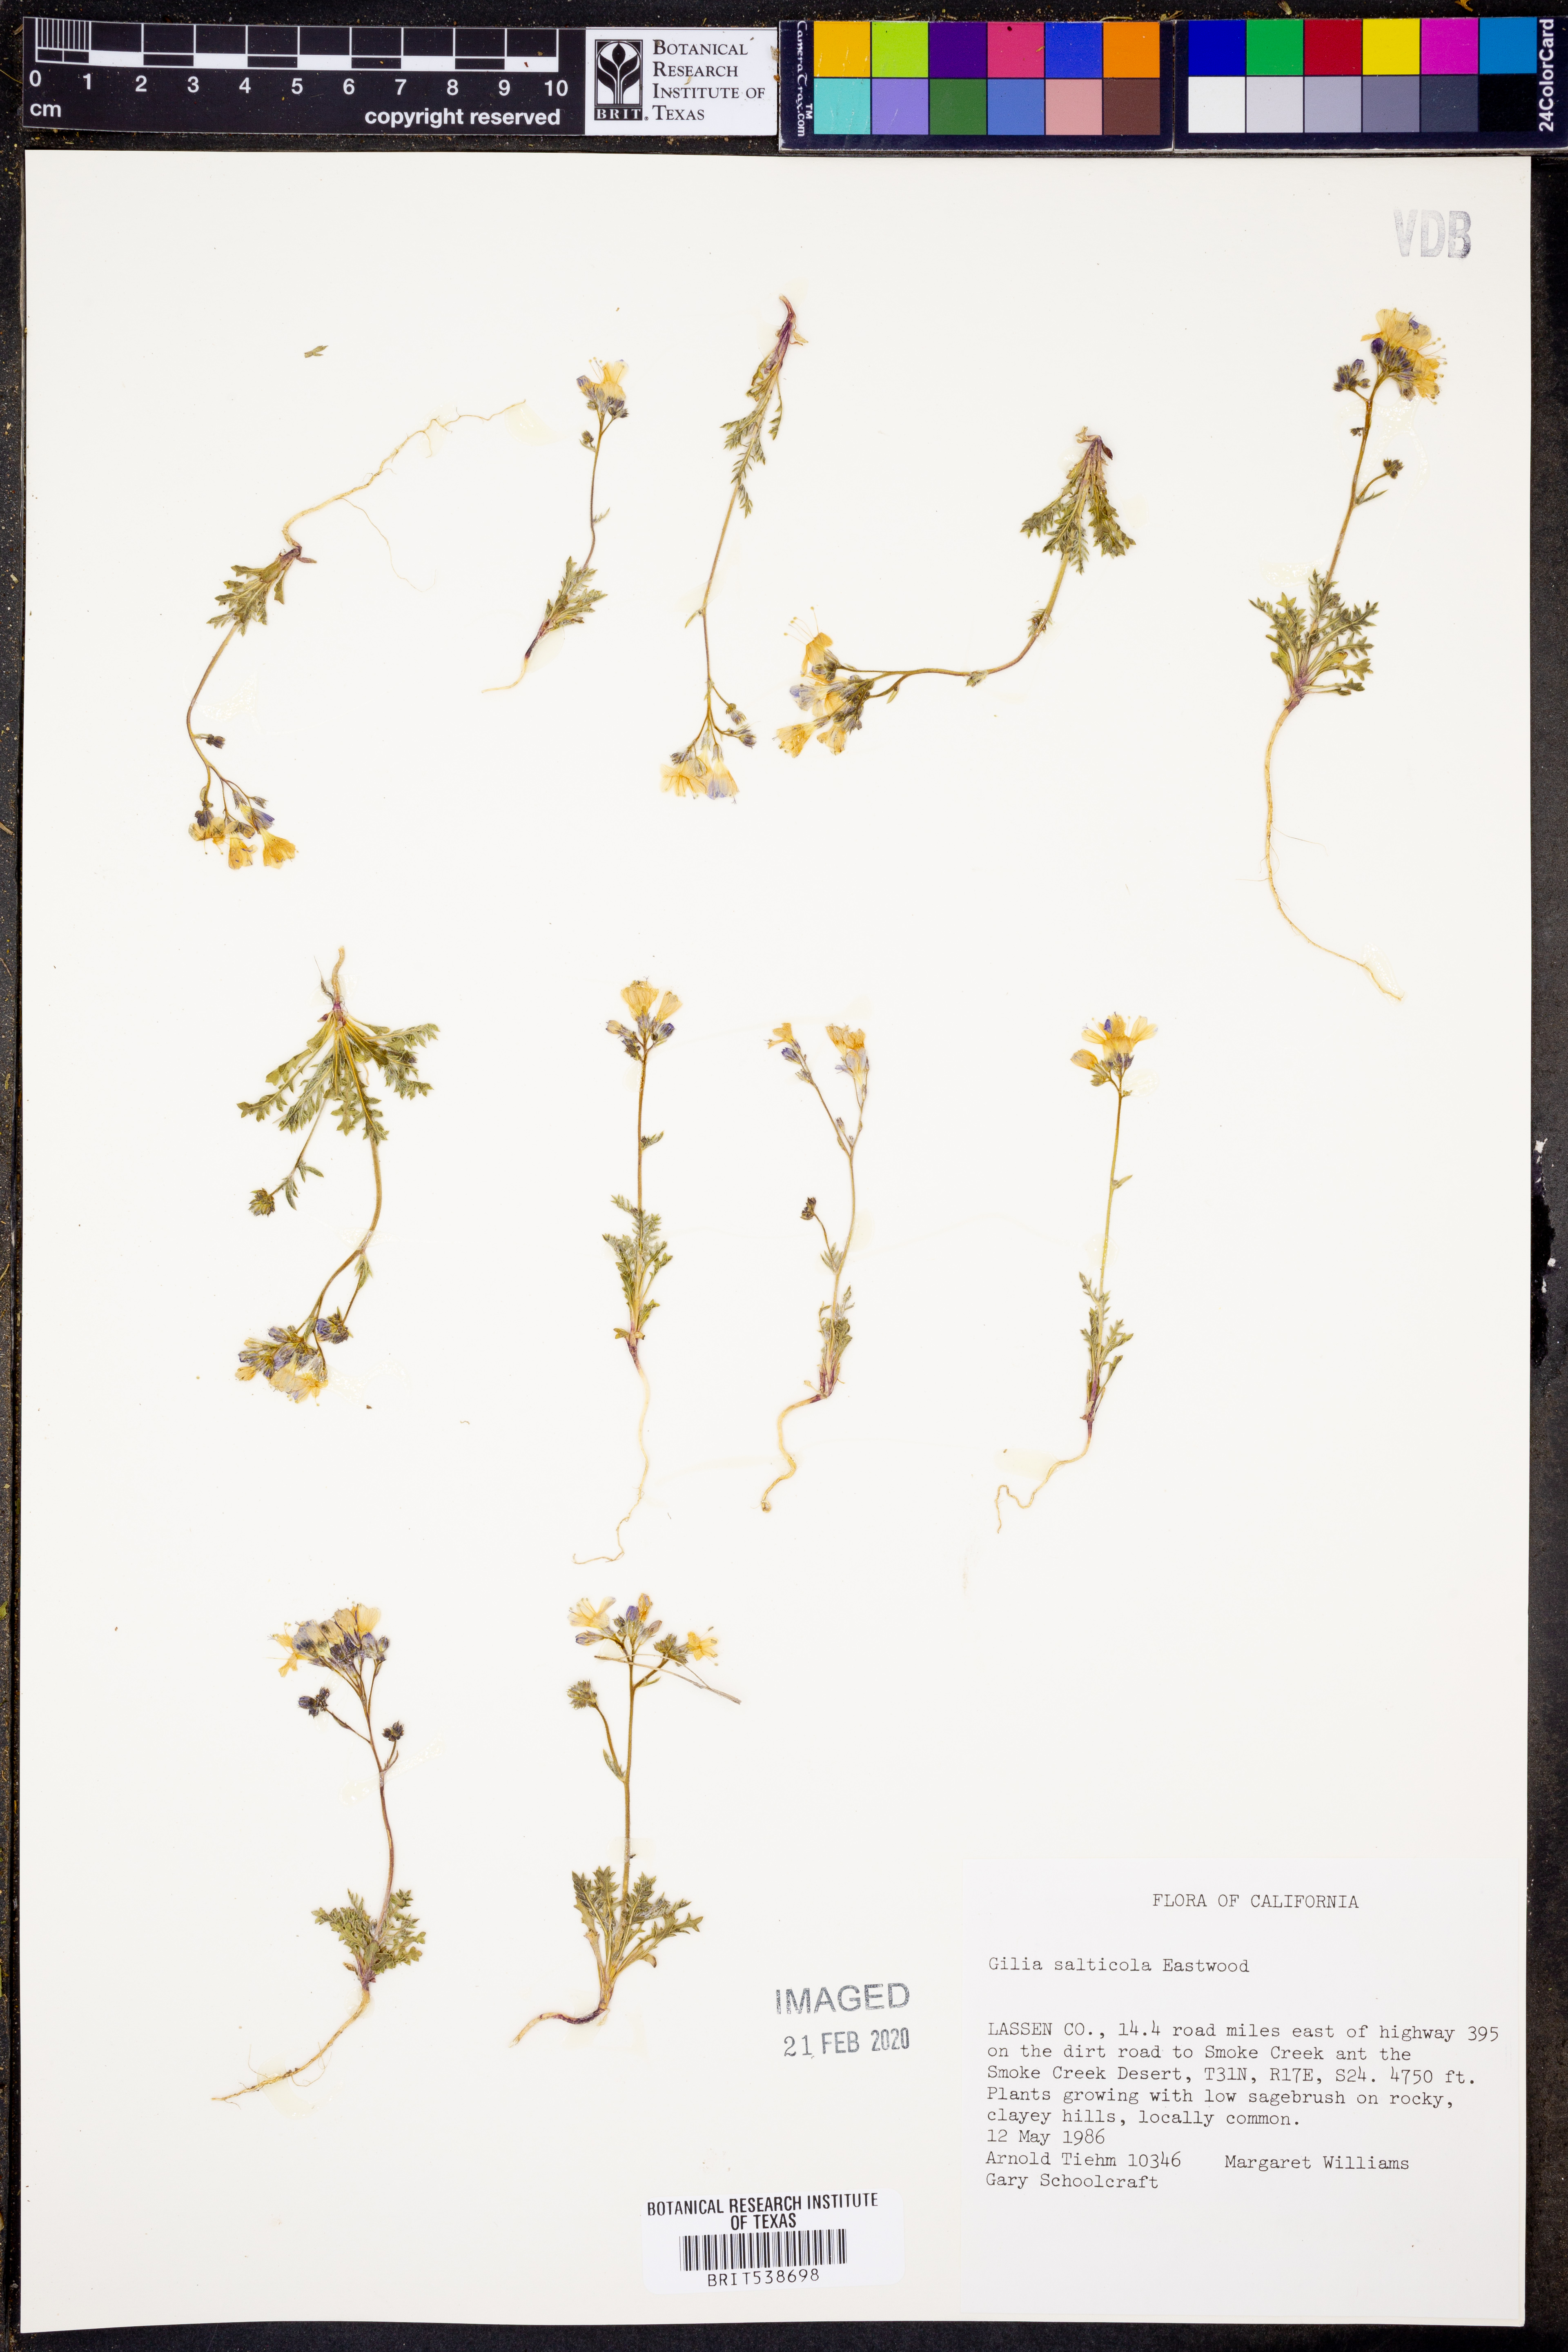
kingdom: Plantae
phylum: Tracheophyta
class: Magnoliopsida
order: Ericales
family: Polemoniaceae
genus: Gilia
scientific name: Gilia salticola
